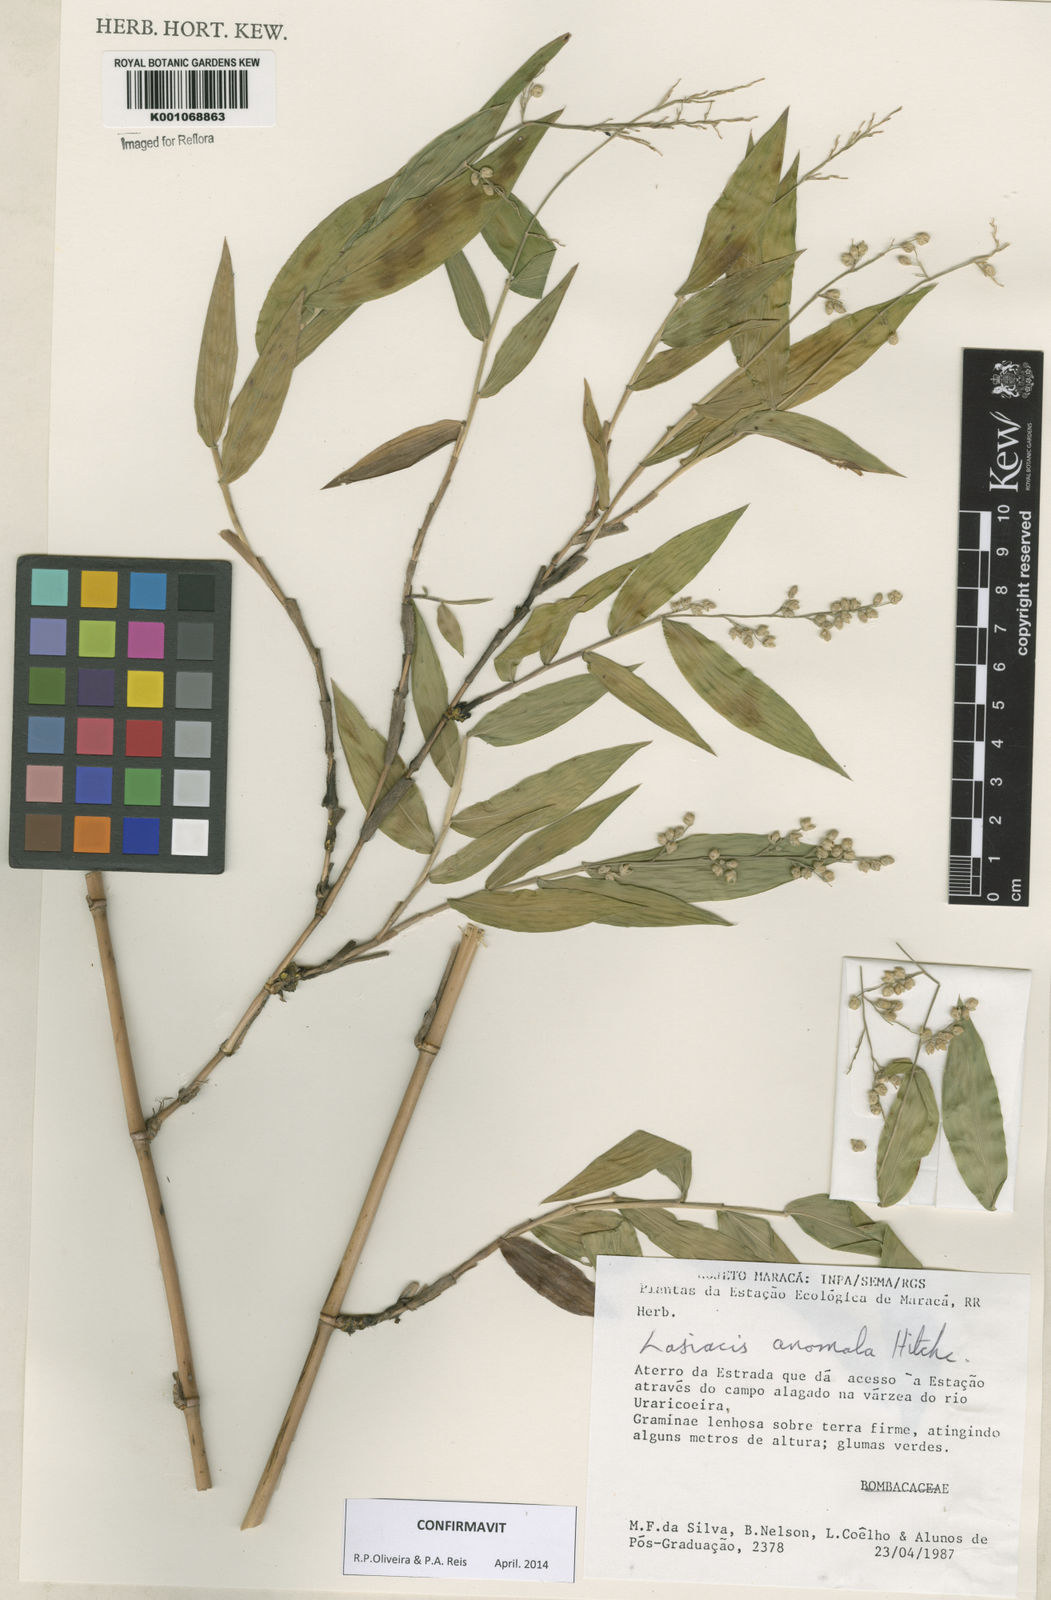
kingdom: Plantae
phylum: Tracheophyta
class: Liliopsida
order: Poales
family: Poaceae
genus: Lasiacis
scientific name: Lasiacis anomala
